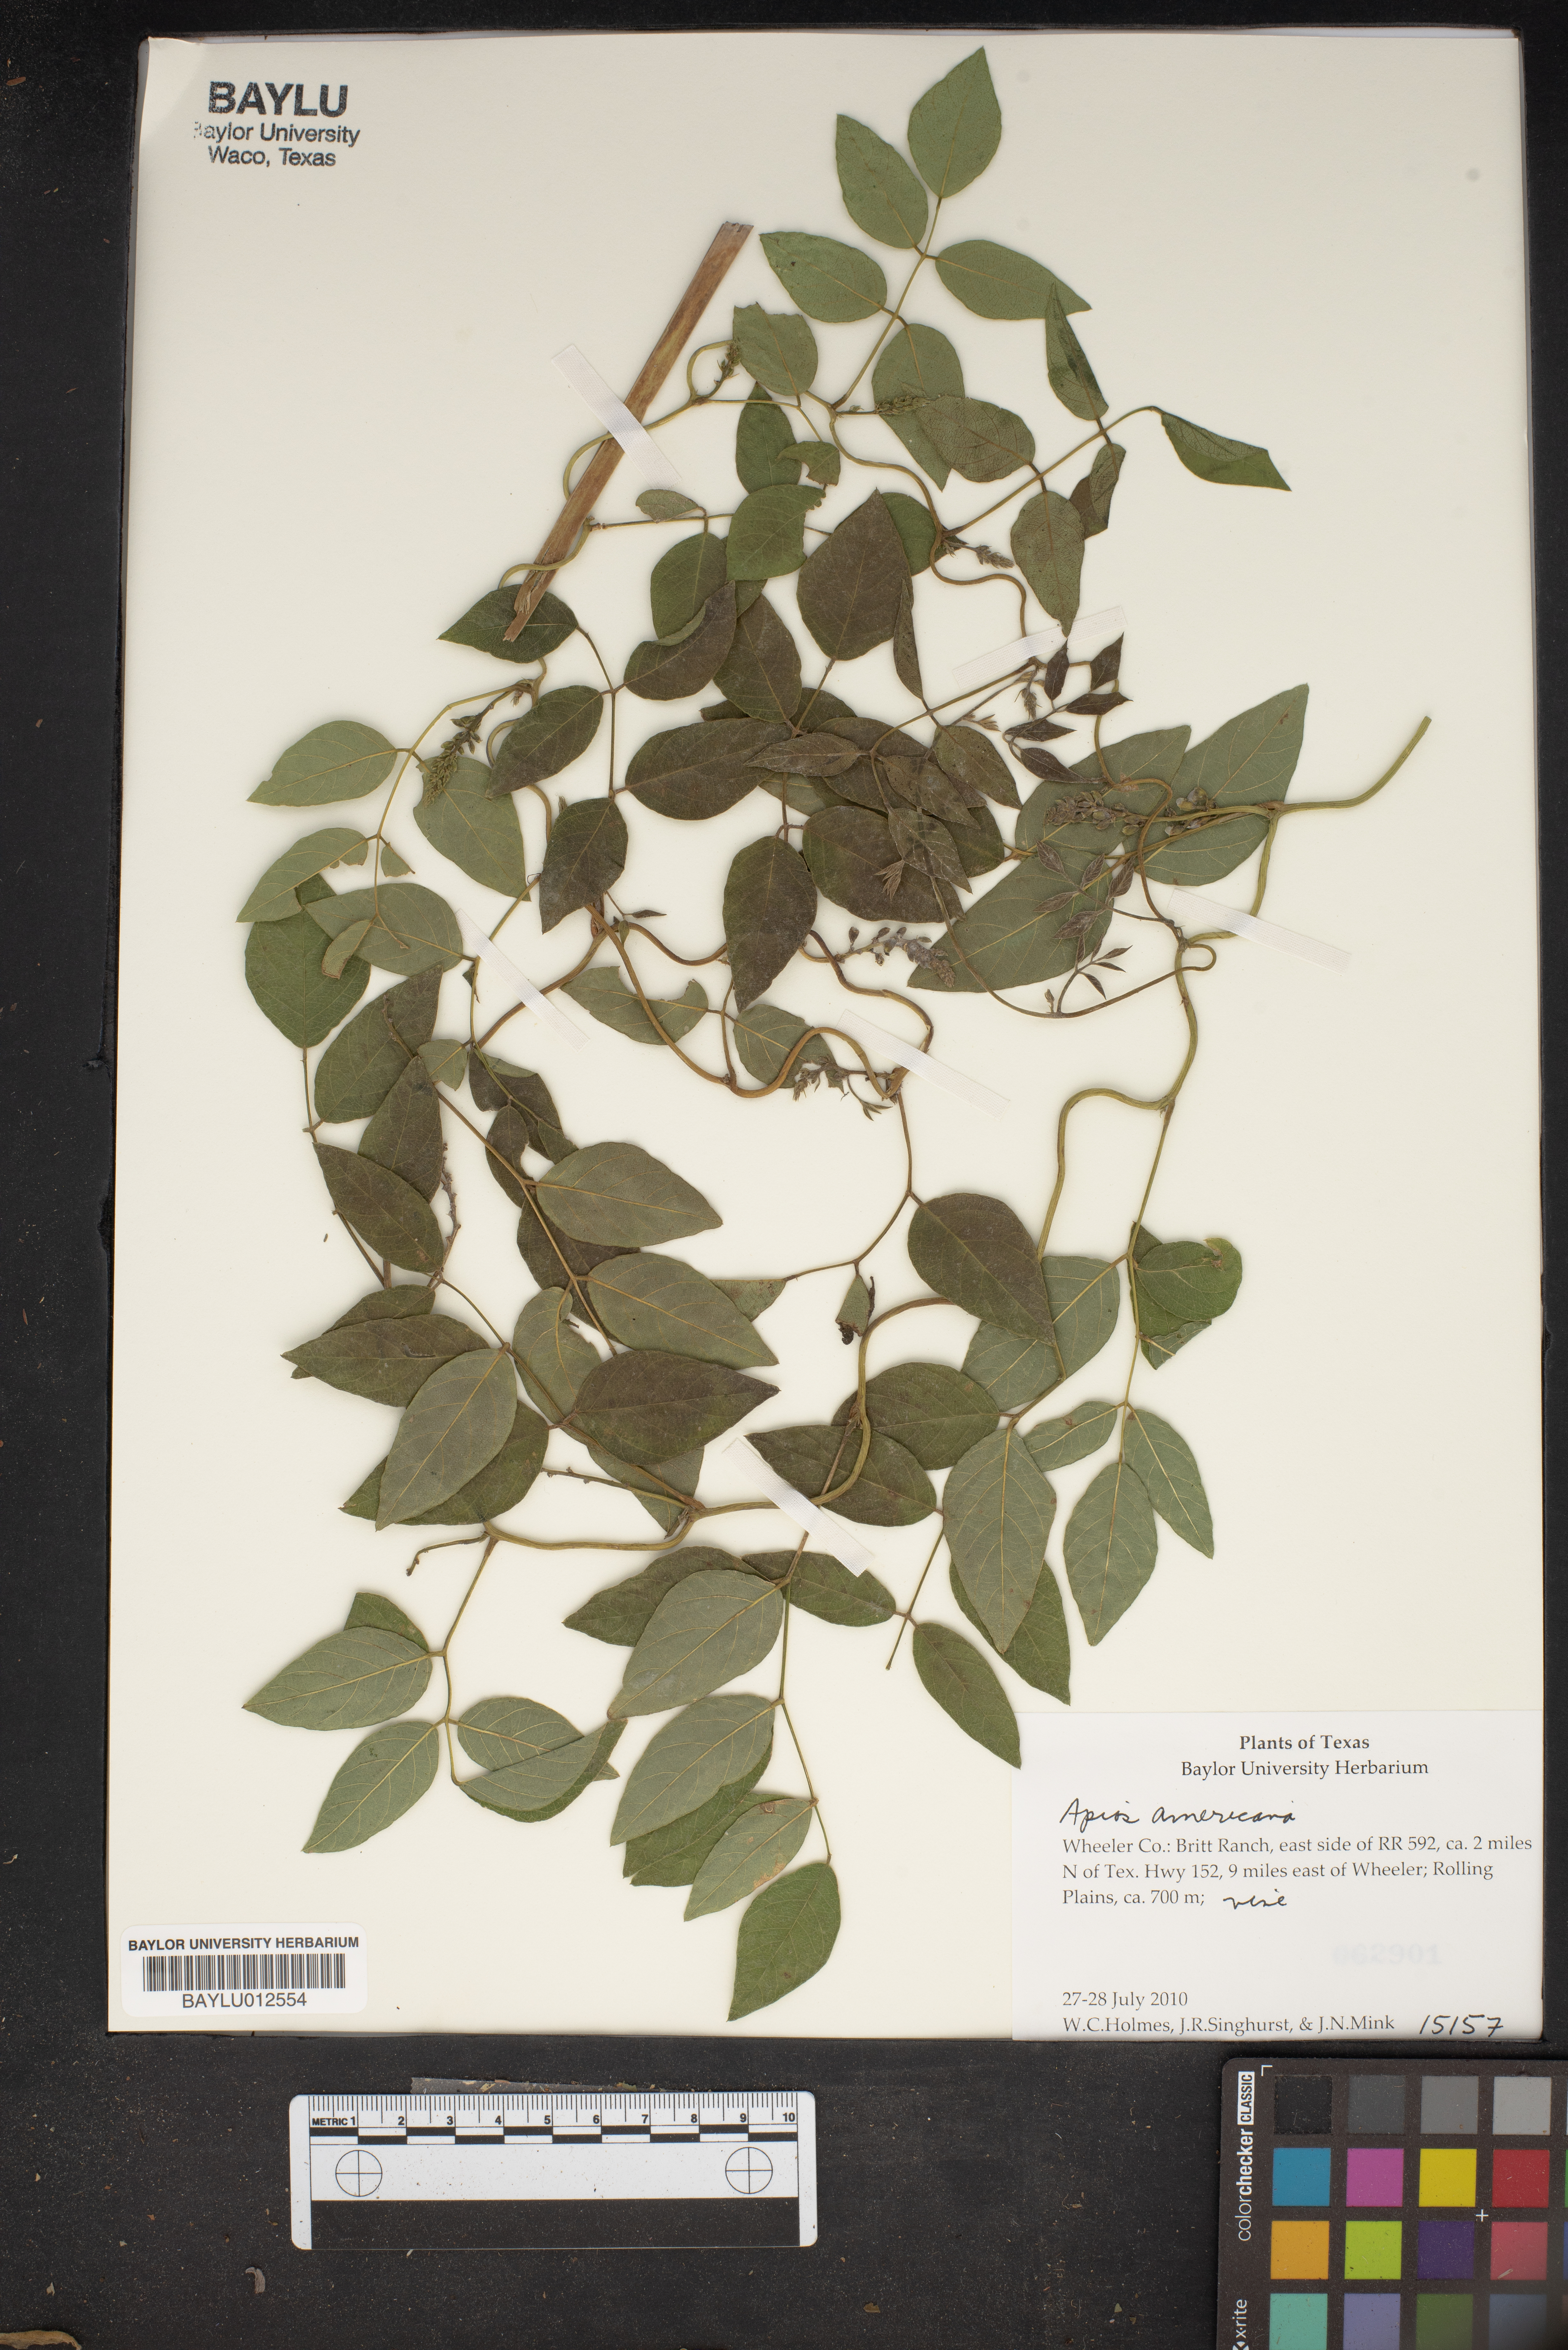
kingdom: Plantae
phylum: Tracheophyta
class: Magnoliopsida
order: Fabales
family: Fabaceae
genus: Apios
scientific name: Apios americana
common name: American potato-bean
